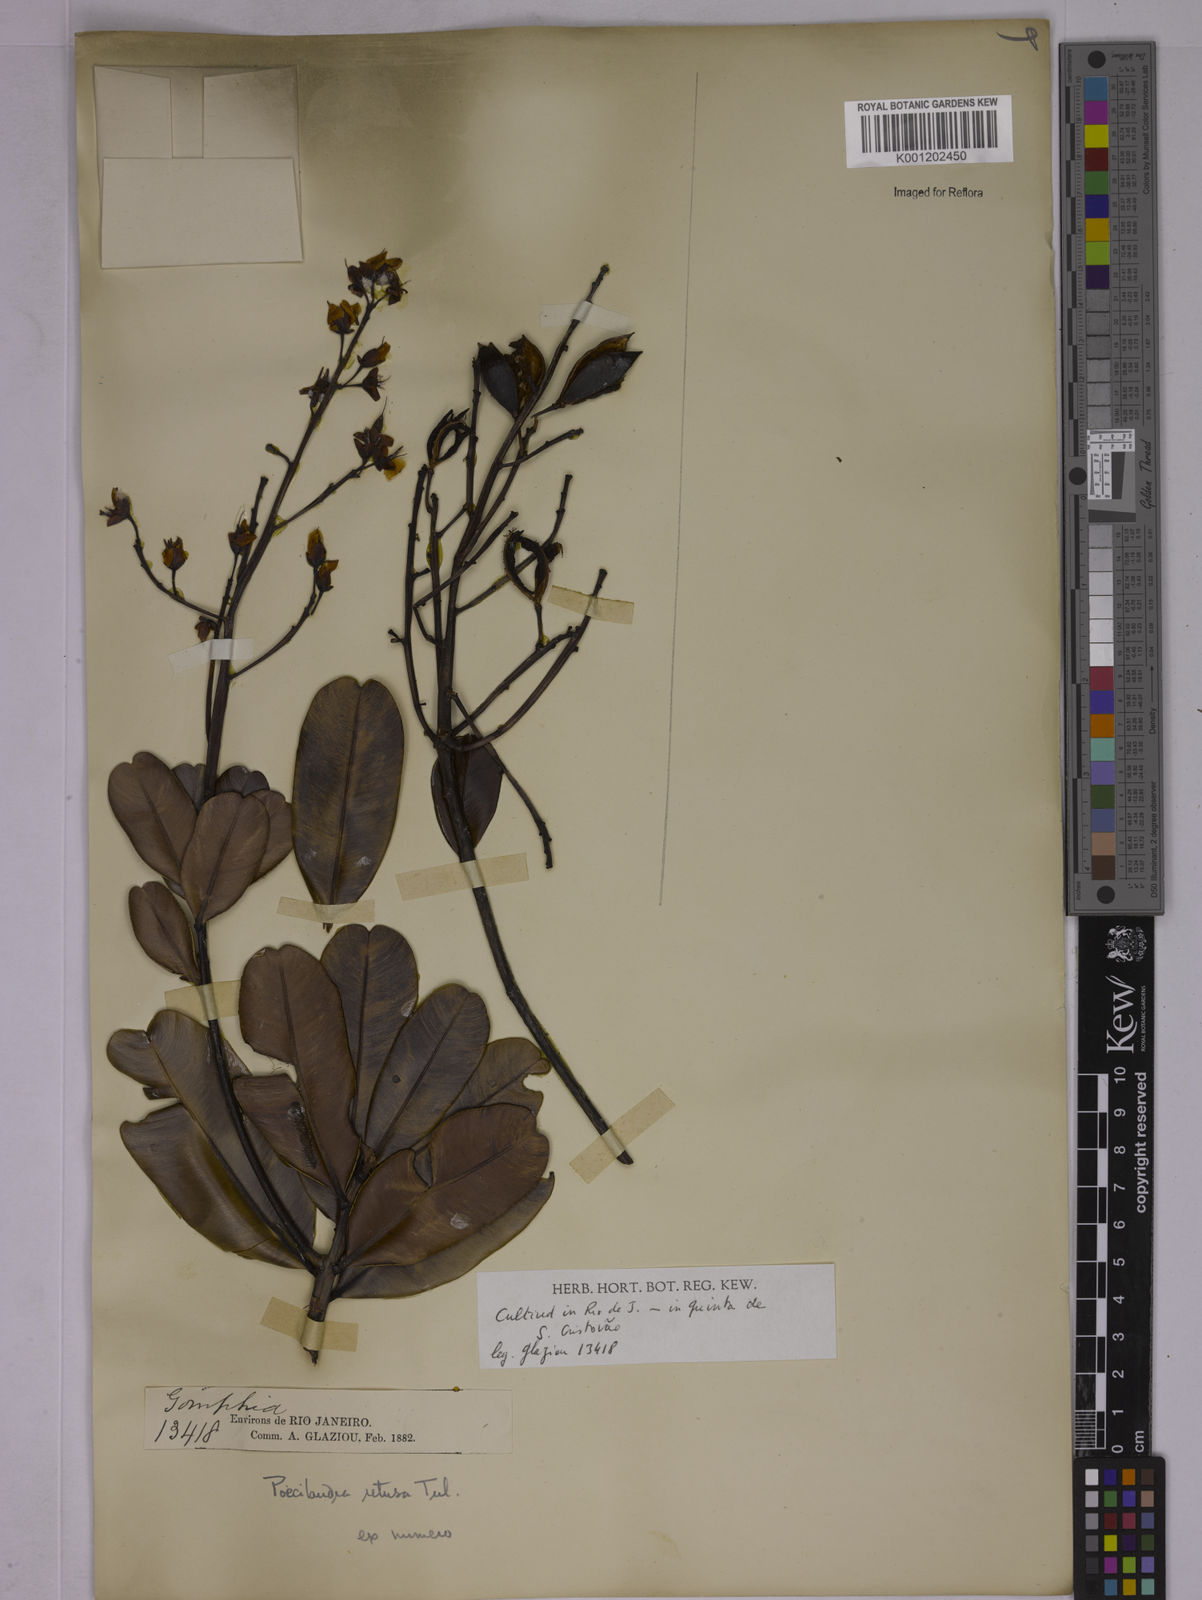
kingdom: Plantae
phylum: Tracheophyta
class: Magnoliopsida
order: Malpighiales
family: Ochnaceae
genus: Poecilandra
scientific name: Poecilandra retusa
